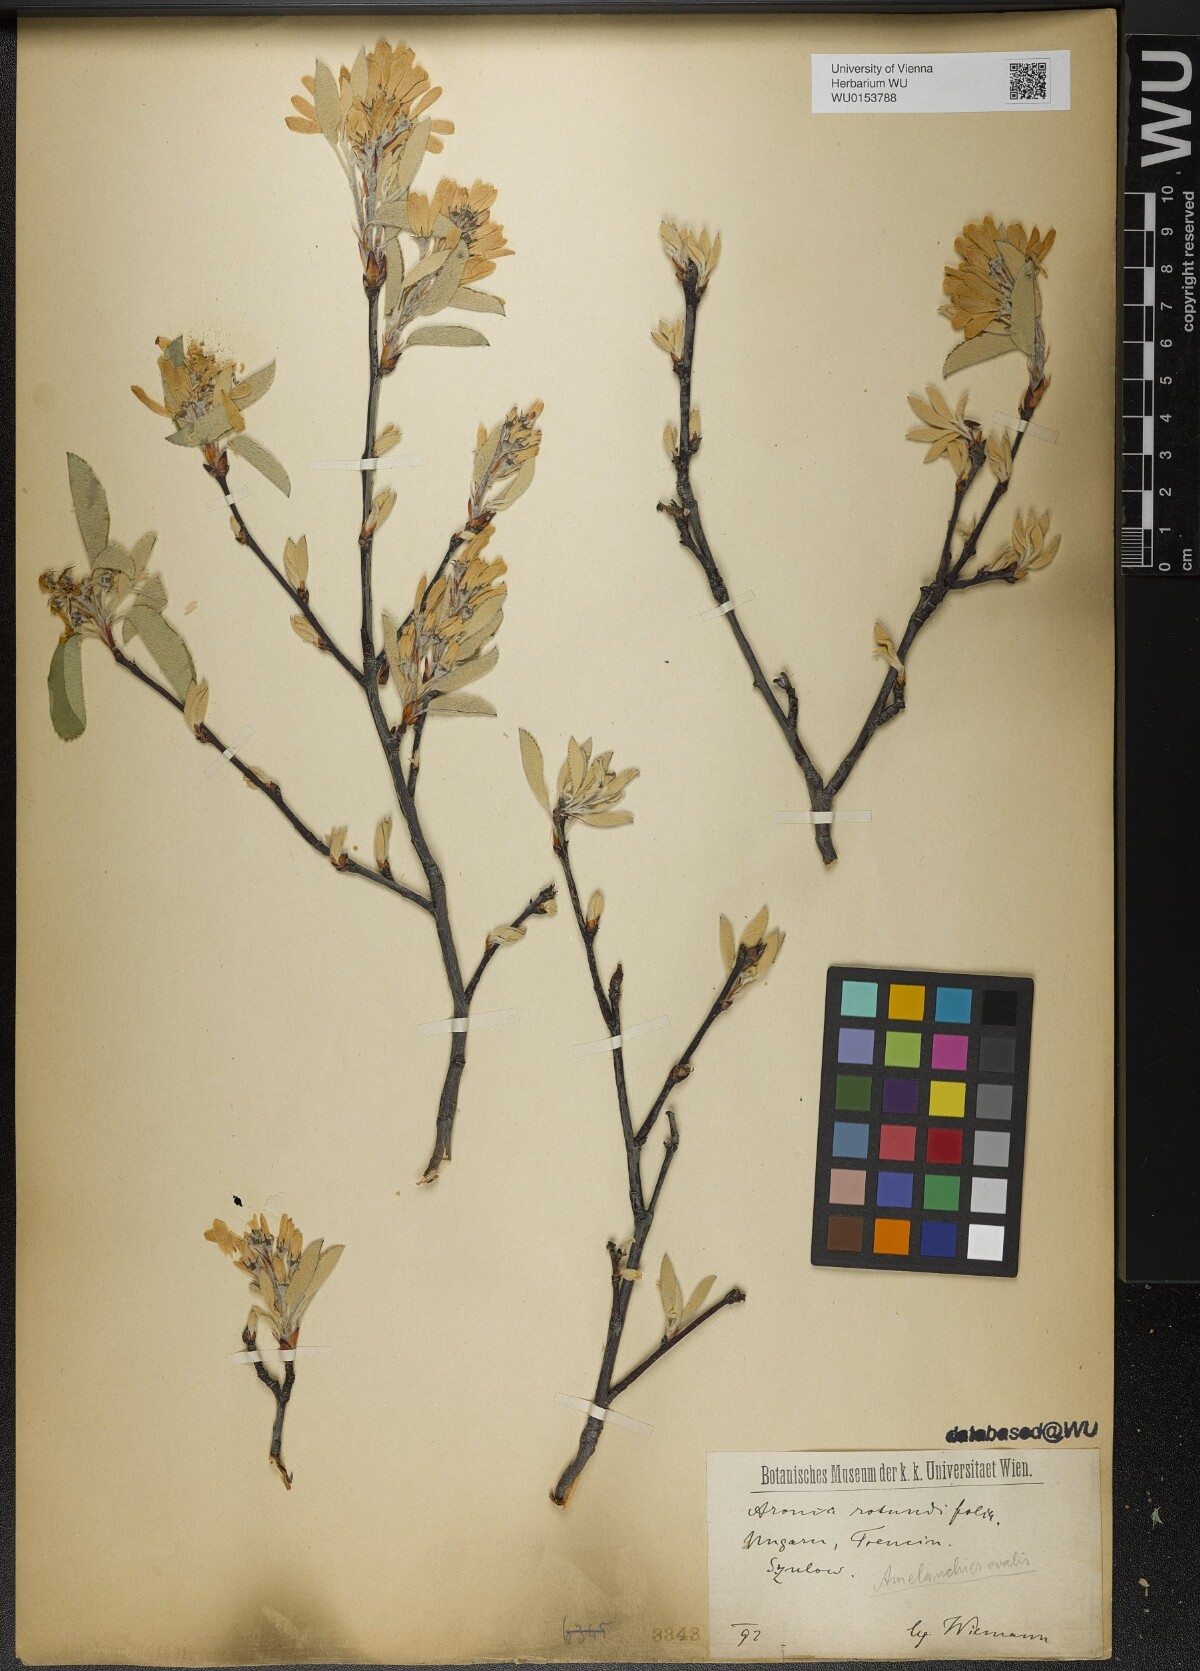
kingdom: Plantae
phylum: Tracheophyta
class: Magnoliopsida
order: Rosales
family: Rosaceae
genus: Amelanchier
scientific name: Amelanchier ovalis
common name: Serviceberry
